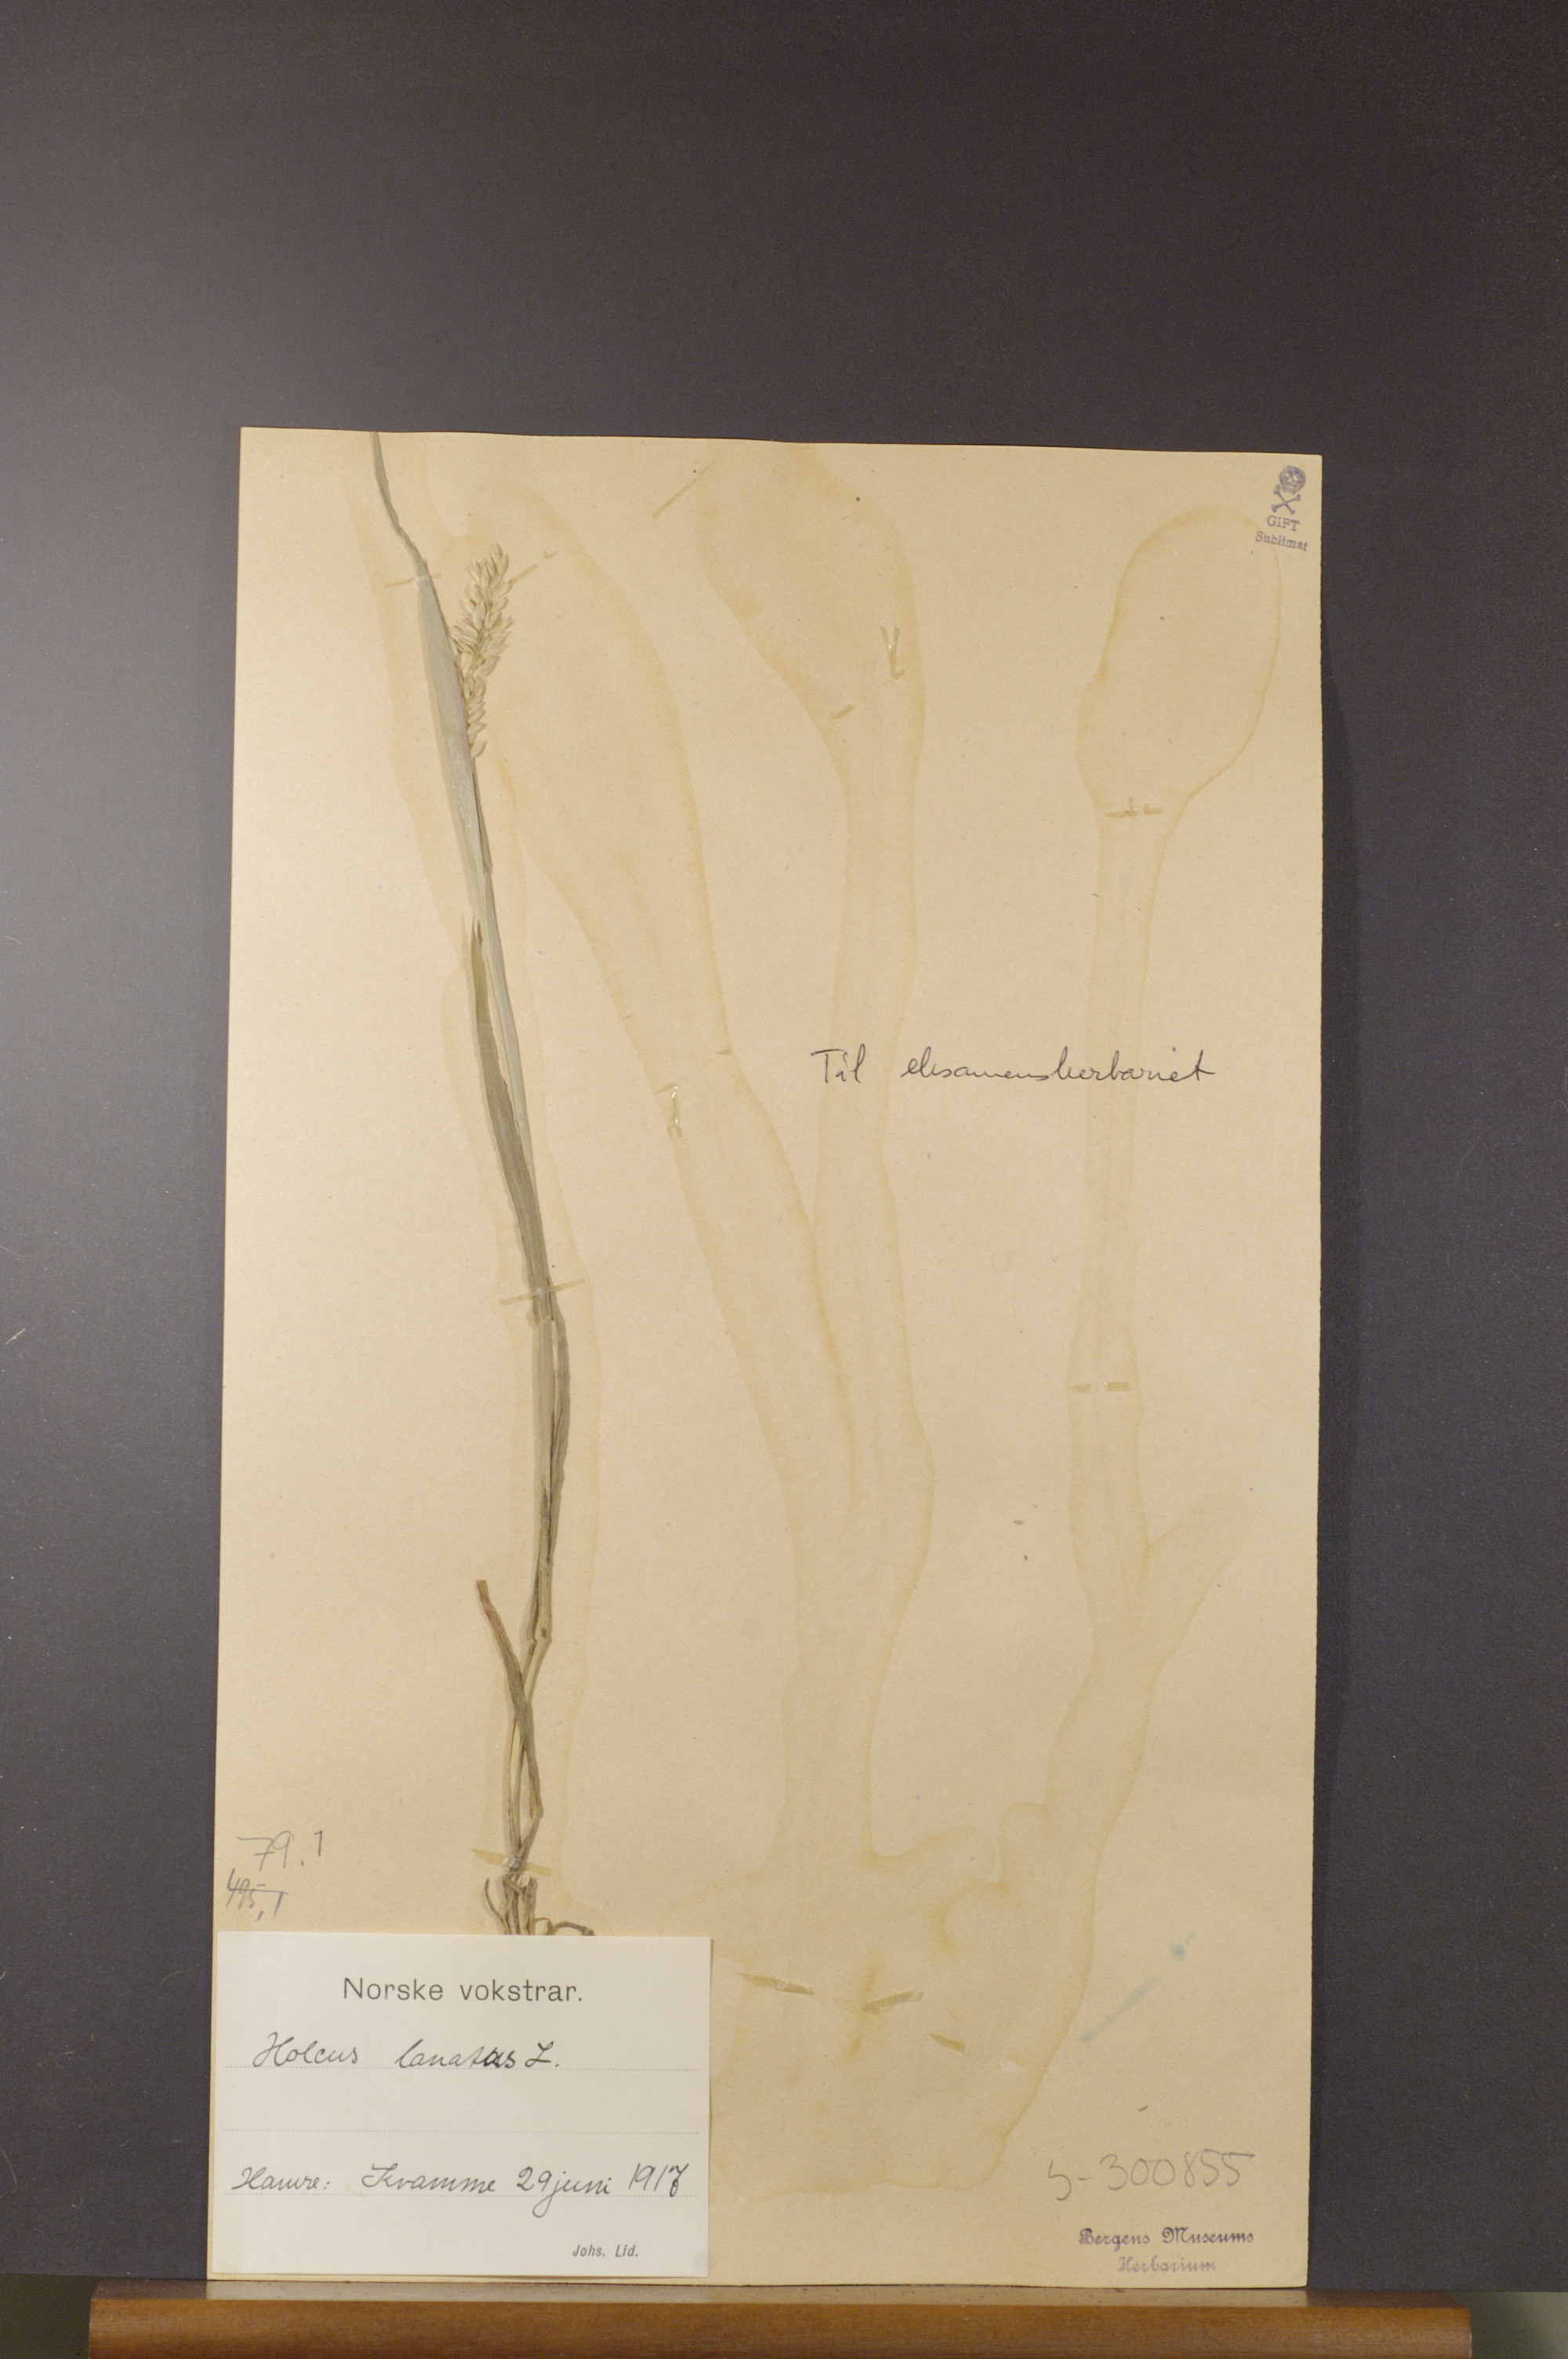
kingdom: Plantae
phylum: Tracheophyta
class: Liliopsida
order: Poales
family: Poaceae
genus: Holcus
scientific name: Holcus lanatus
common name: Yorkshire-fog
